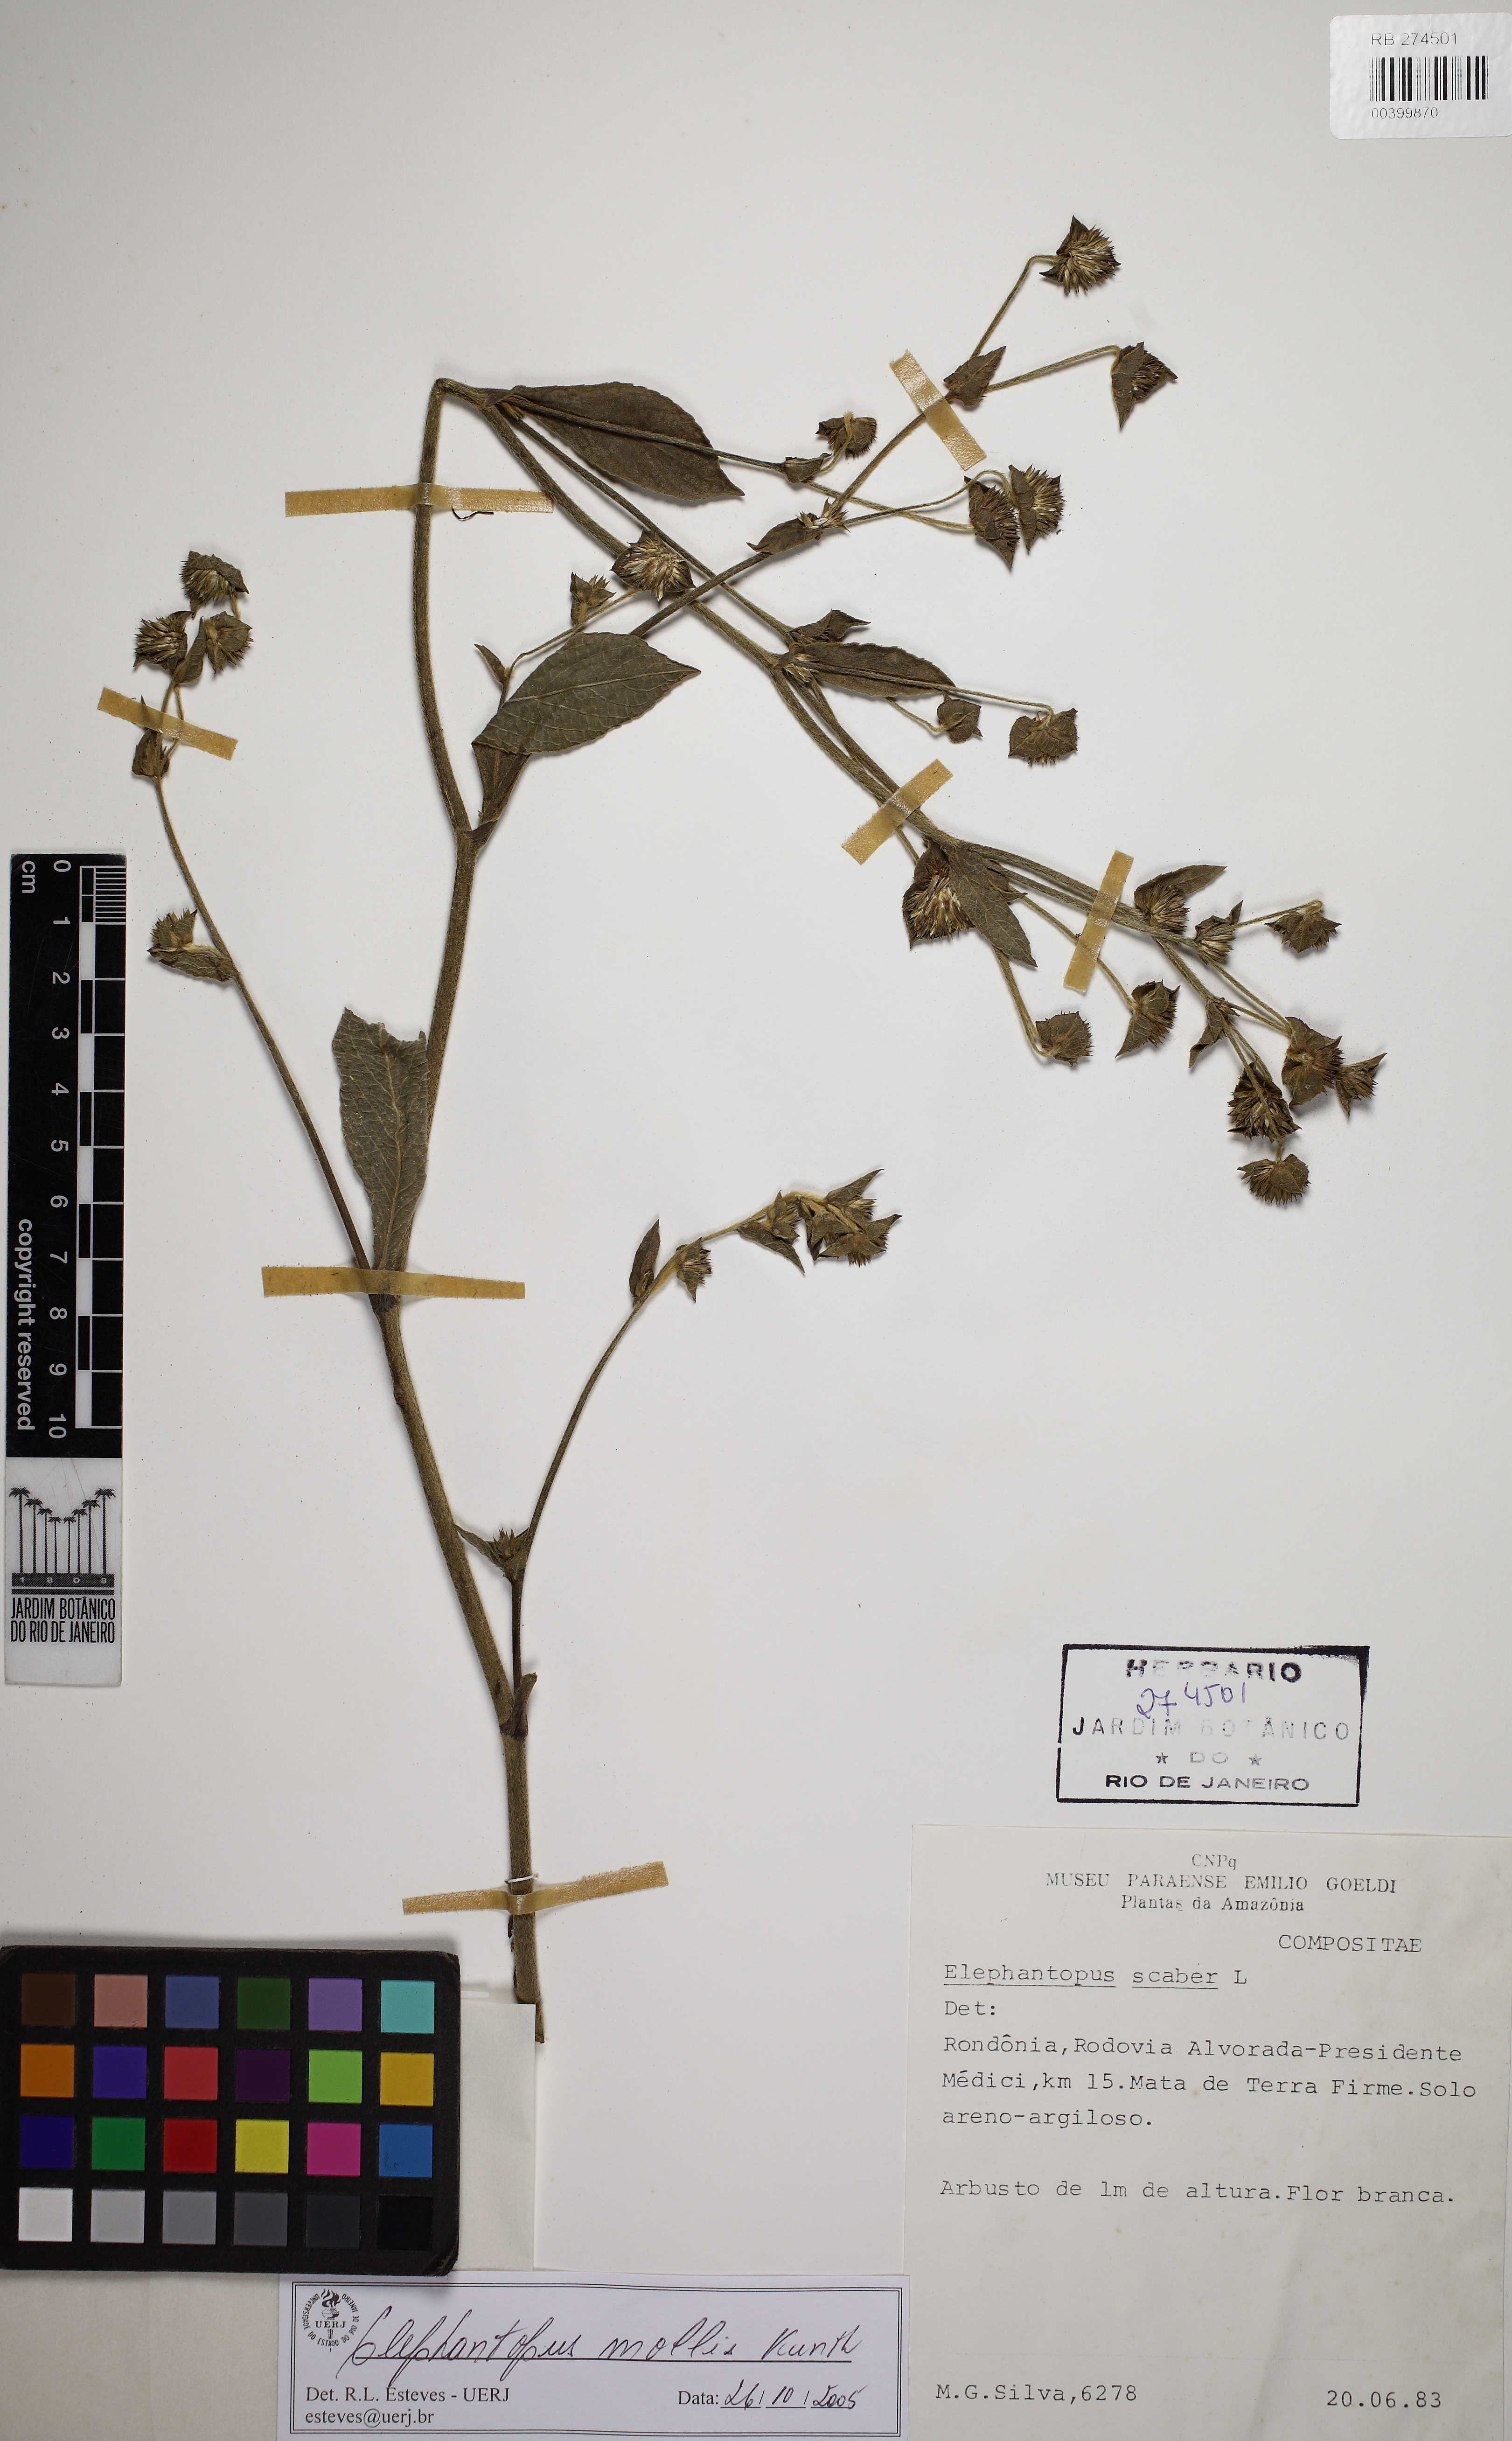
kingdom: Plantae
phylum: Tracheophyta
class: Magnoliopsida
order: Asterales
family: Asteraceae
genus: Elephantopus
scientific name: Elephantopus mollis
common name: Soft elephantsfoot
